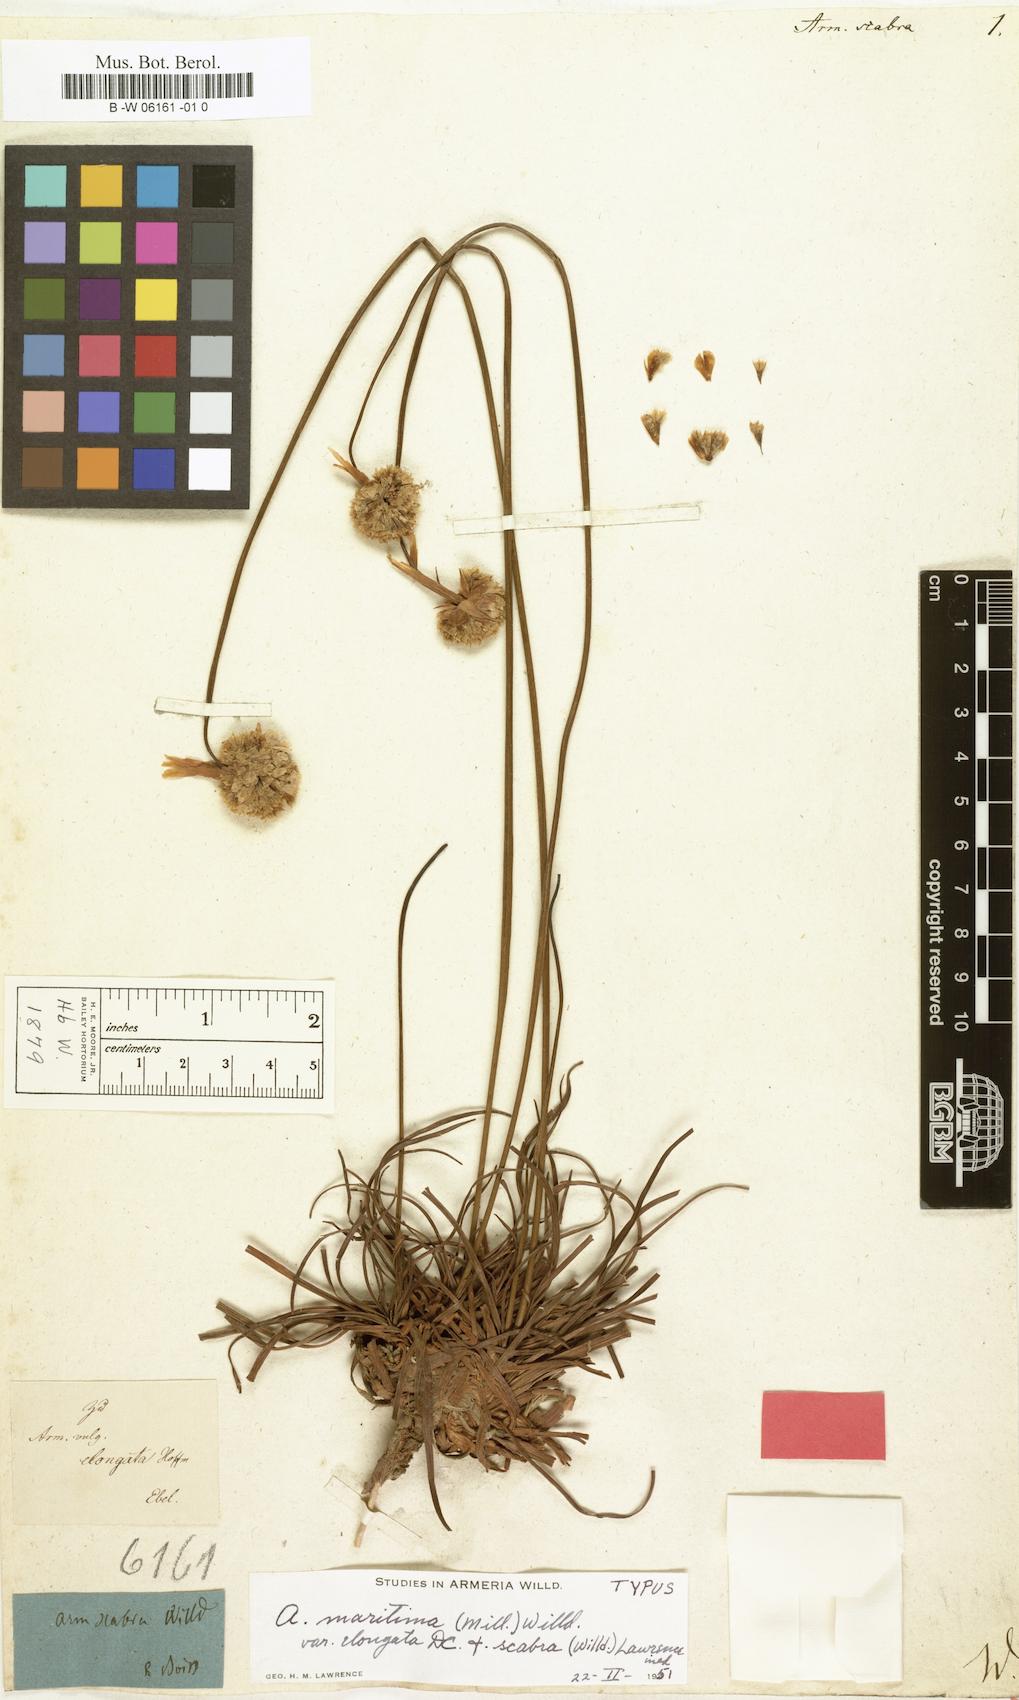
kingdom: Plantae
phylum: Tracheophyta
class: Magnoliopsida
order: Caryophyllales
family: Plumbaginaceae
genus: Armeria
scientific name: Armeria maritima
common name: Thrift
